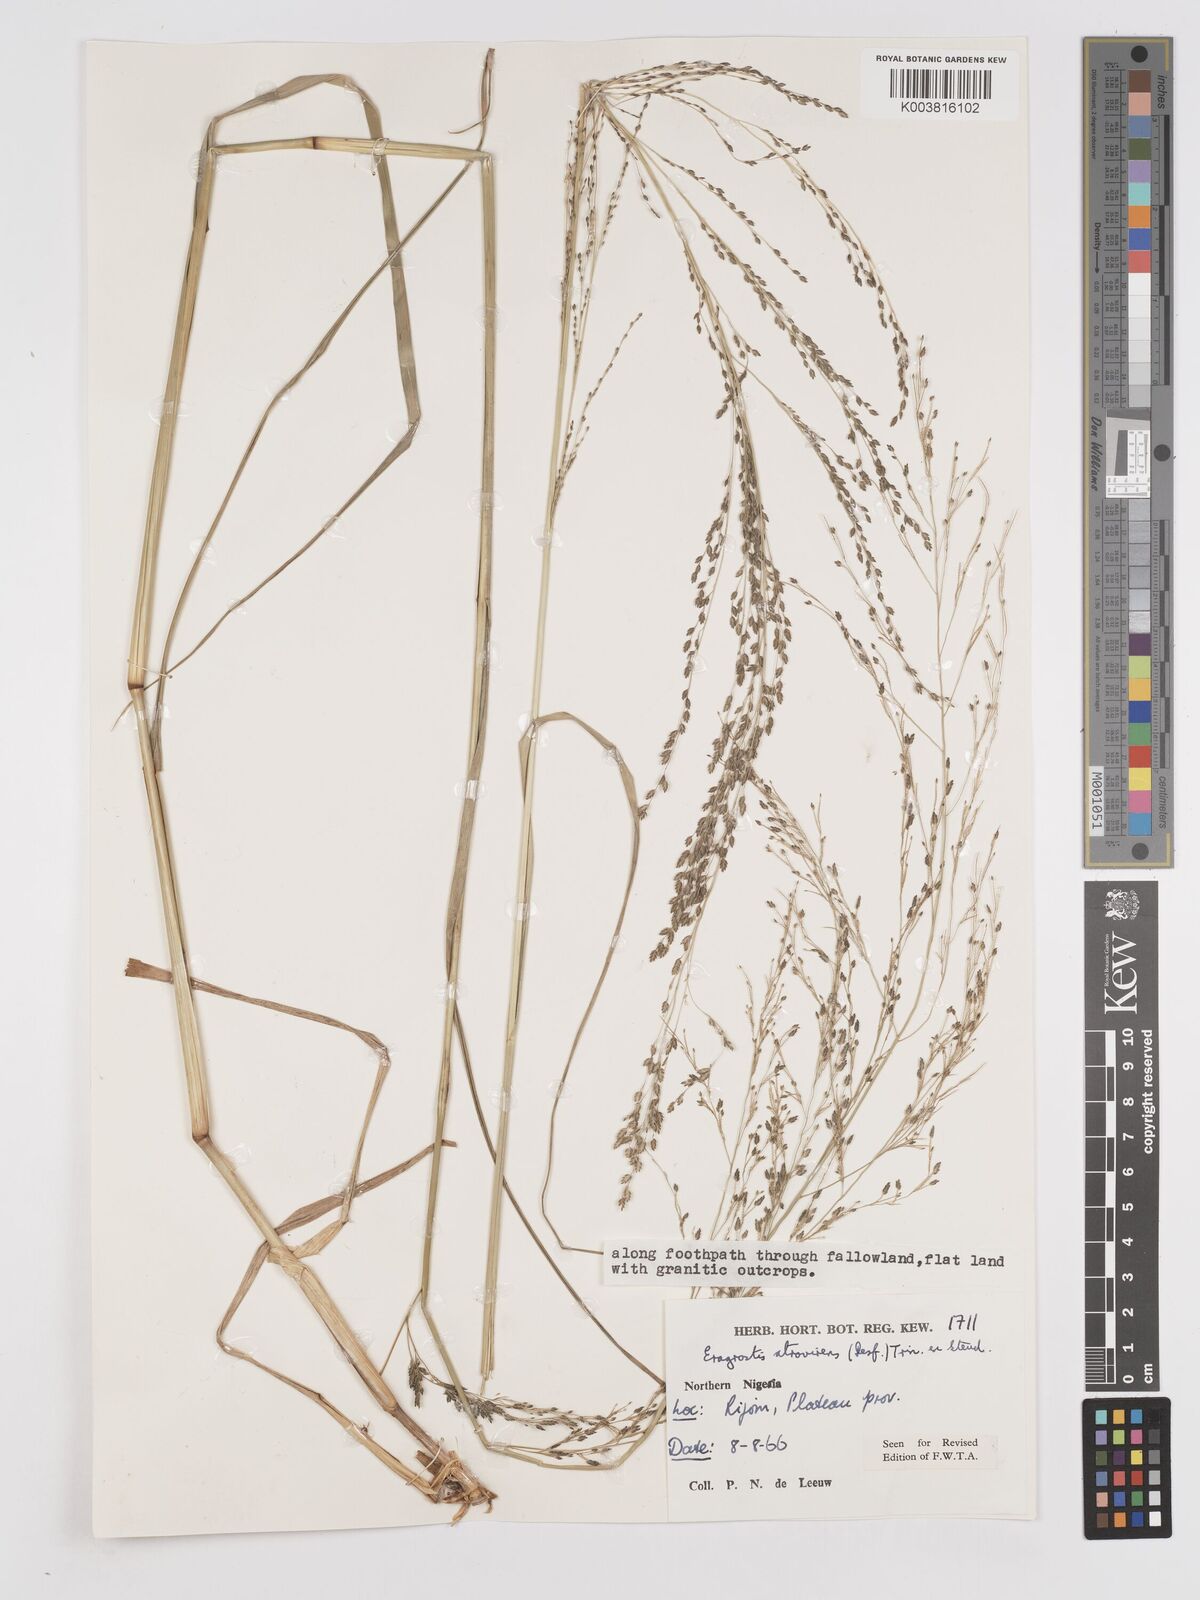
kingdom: Plantae
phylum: Tracheophyta
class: Liliopsida
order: Poales
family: Poaceae
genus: Eragrostis
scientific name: Eragrostis atrovirens
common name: Thalia lovegrass
